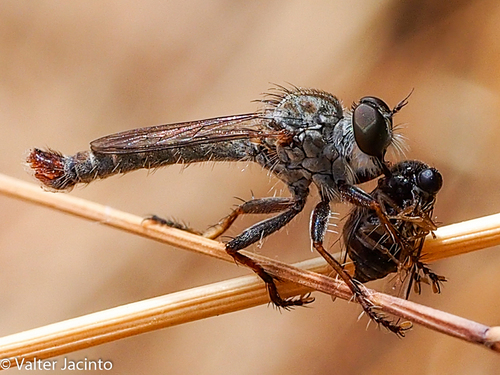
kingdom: Animalia
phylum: Arthropoda
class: Insecta
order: Diptera
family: Asilidae
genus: Cerdistus
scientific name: Cerdistus
